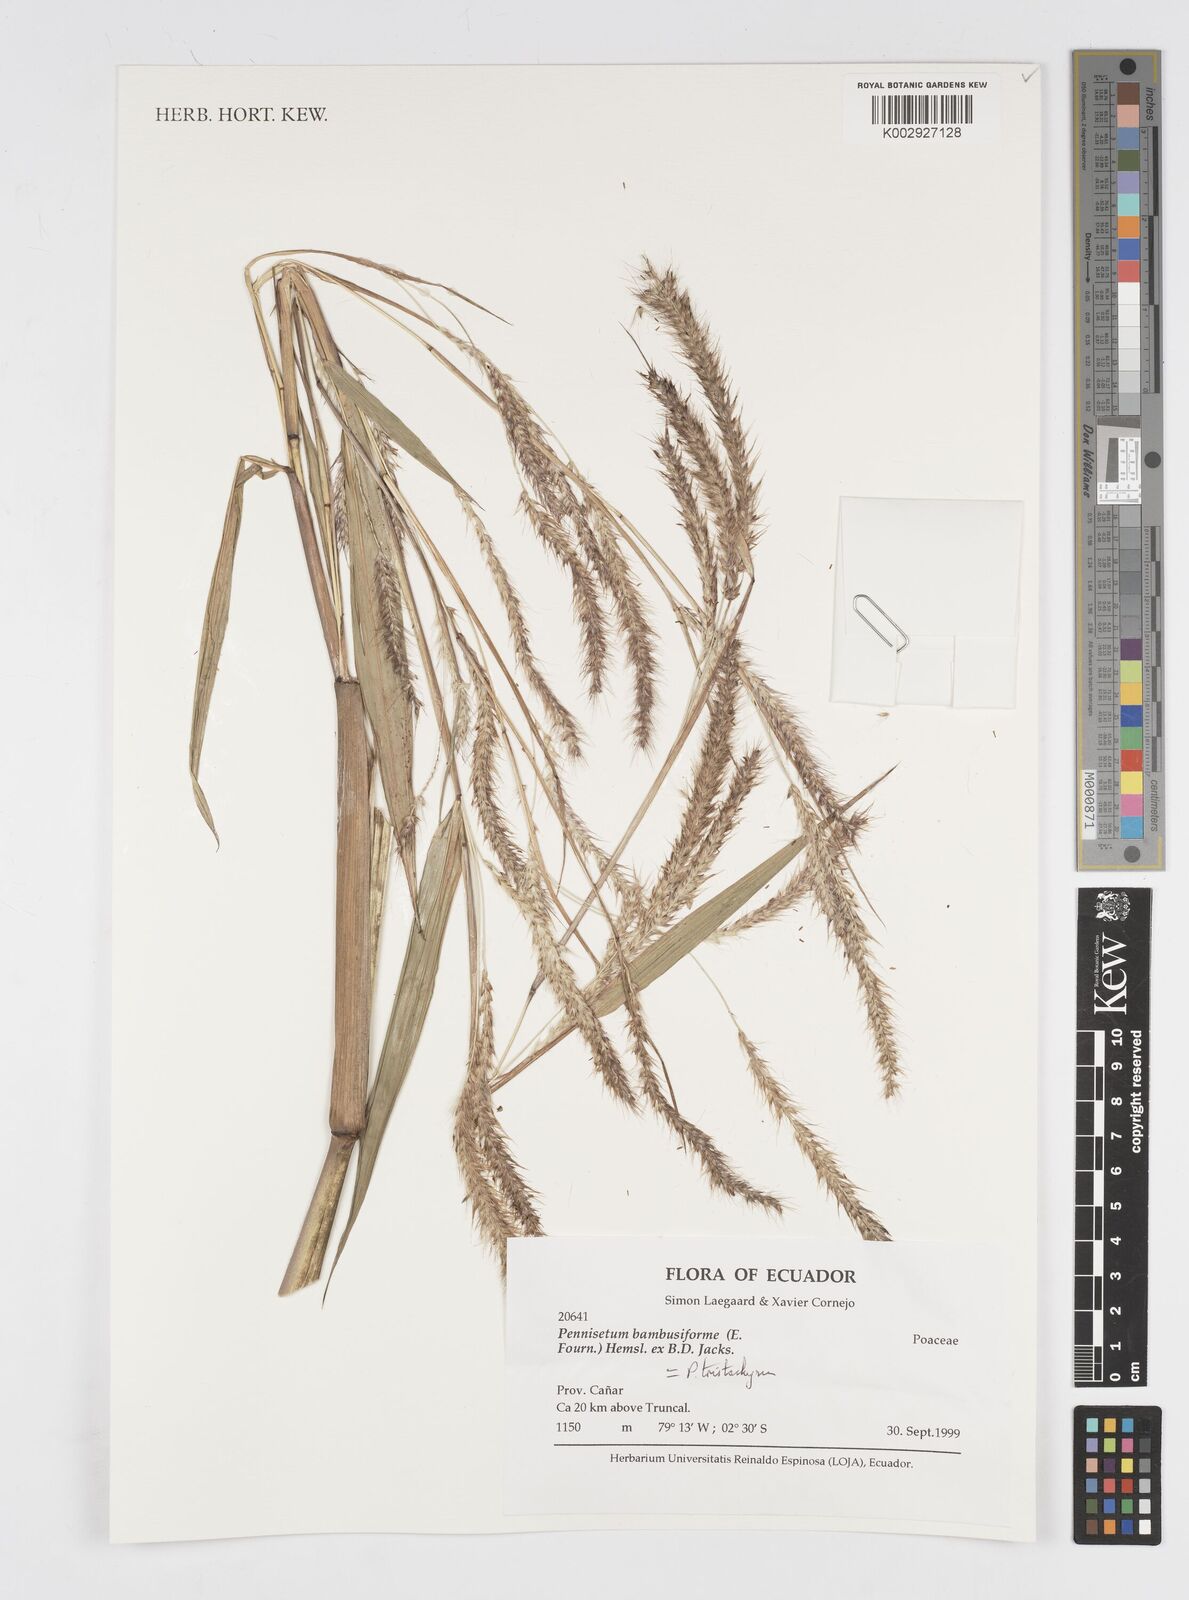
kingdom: Plantae
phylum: Tracheophyta
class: Liliopsida
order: Poales
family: Poaceae
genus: Cenchrus
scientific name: Cenchrus tristachyus
